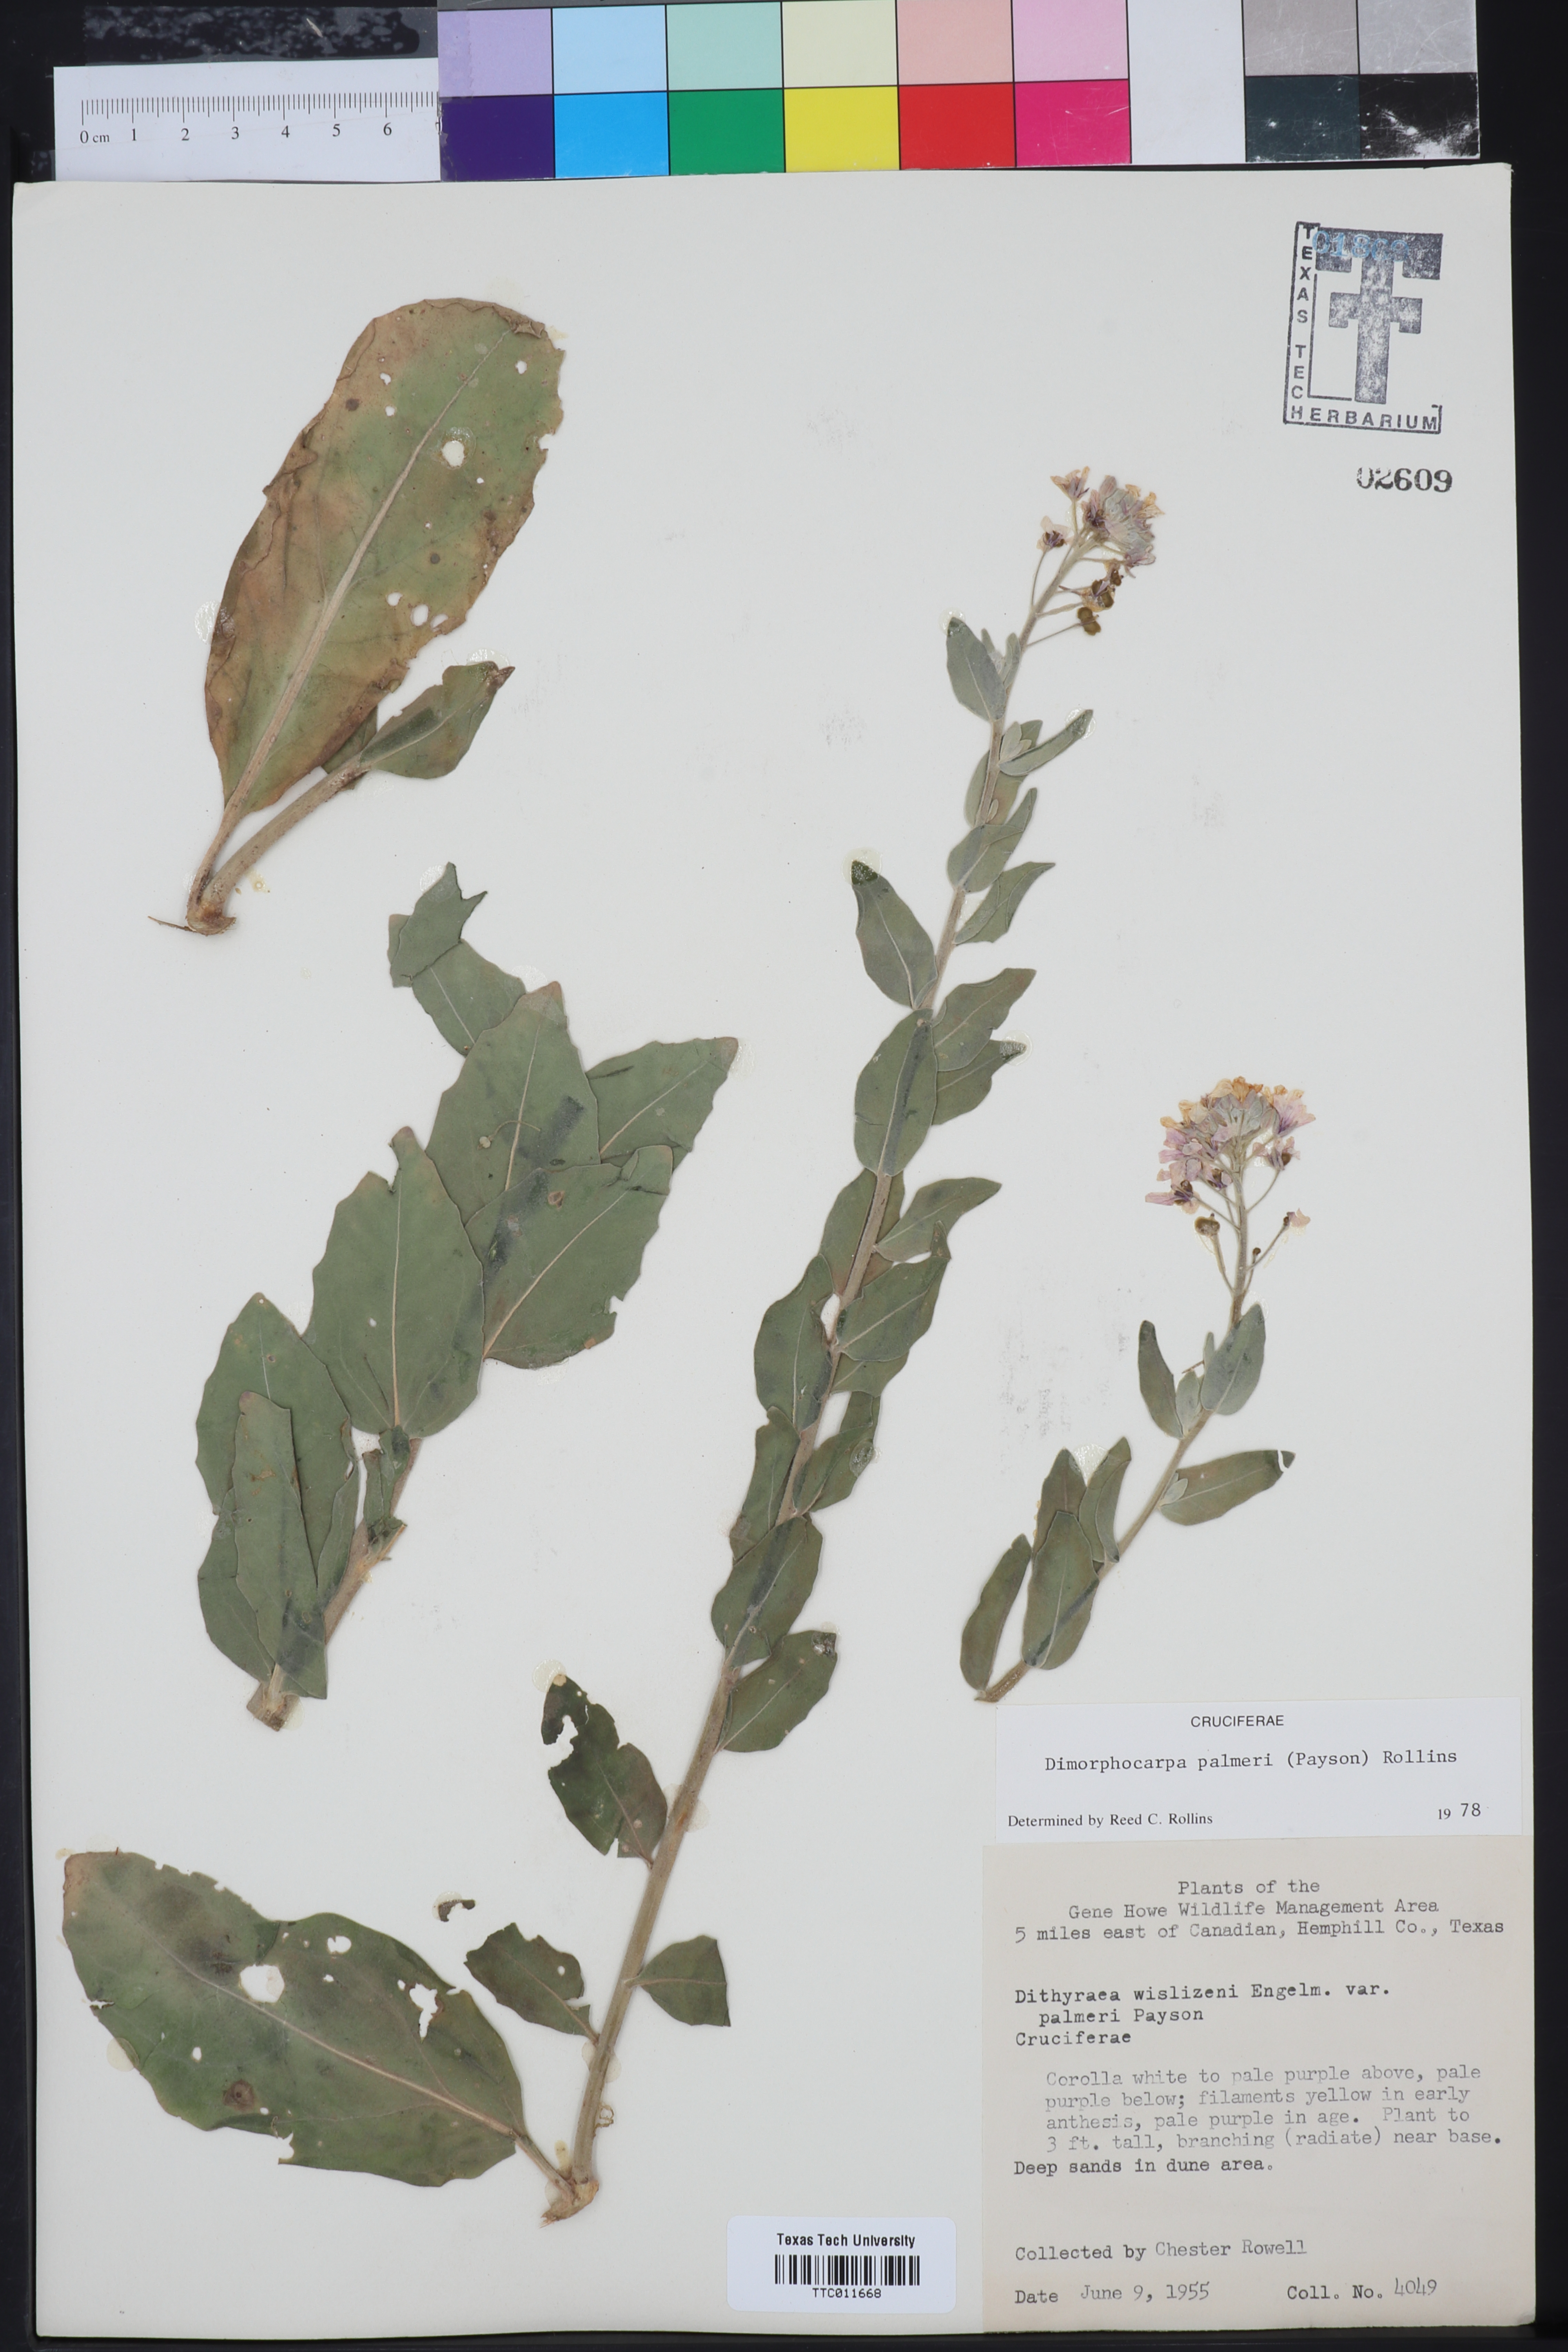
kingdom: Plantae
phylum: Tracheophyta
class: Magnoliopsida
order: Brassicales
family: Brassicaceae
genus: Dimorphocarpa
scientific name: Dimorphocarpa candicans
